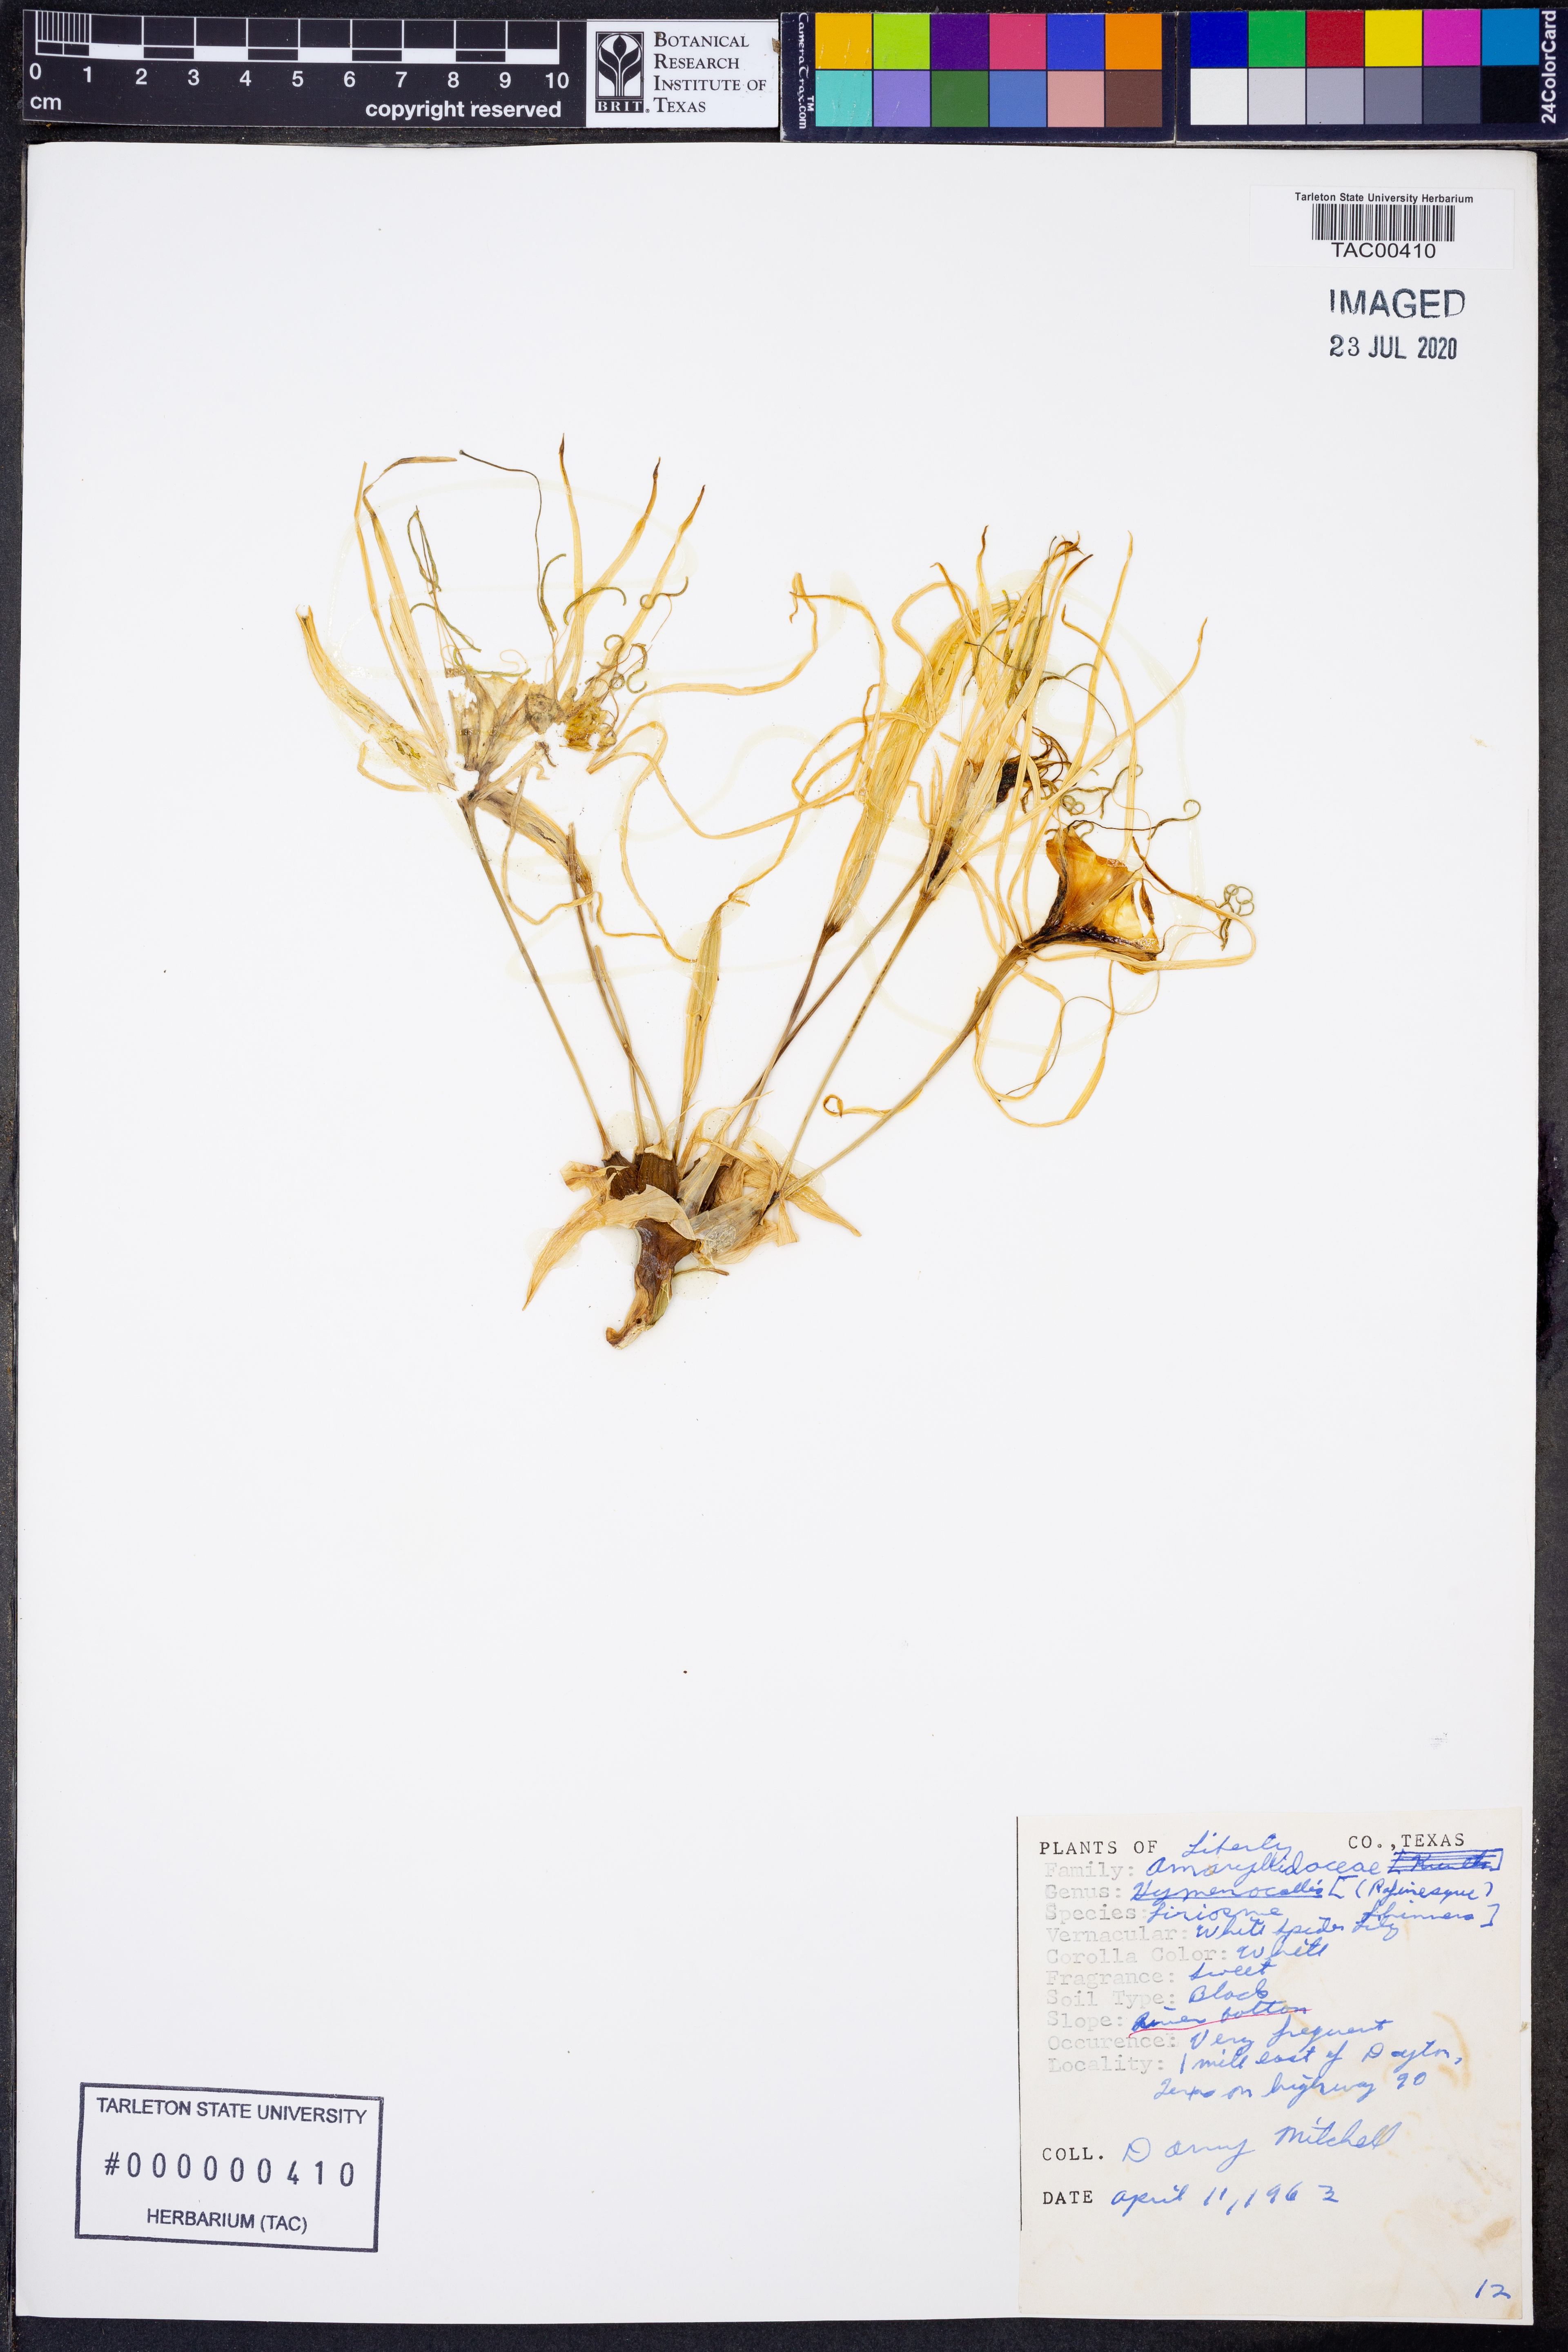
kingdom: Plantae
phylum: Tracheophyta
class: Liliopsida
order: Asparagales
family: Amaryllidaceae
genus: Hymenocallis
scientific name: Hymenocallis liriosme
